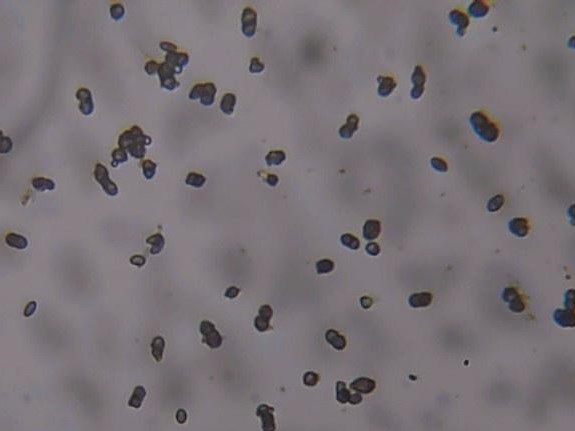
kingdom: Fungi
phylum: Ascomycota
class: Lecanoromycetes
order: Caliciales
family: Caliciaceae
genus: Calicium
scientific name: Calicium glaucellum
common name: grågrøn nålelav
